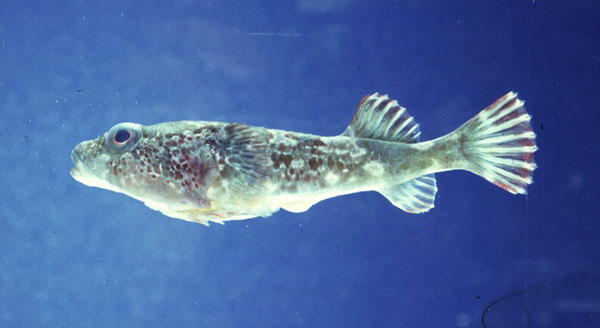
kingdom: Animalia
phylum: Chordata
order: Gobiesociformes
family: Gobiesocidae
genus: Chorisochismus
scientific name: Chorisochismus dentex
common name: Rocksucker
